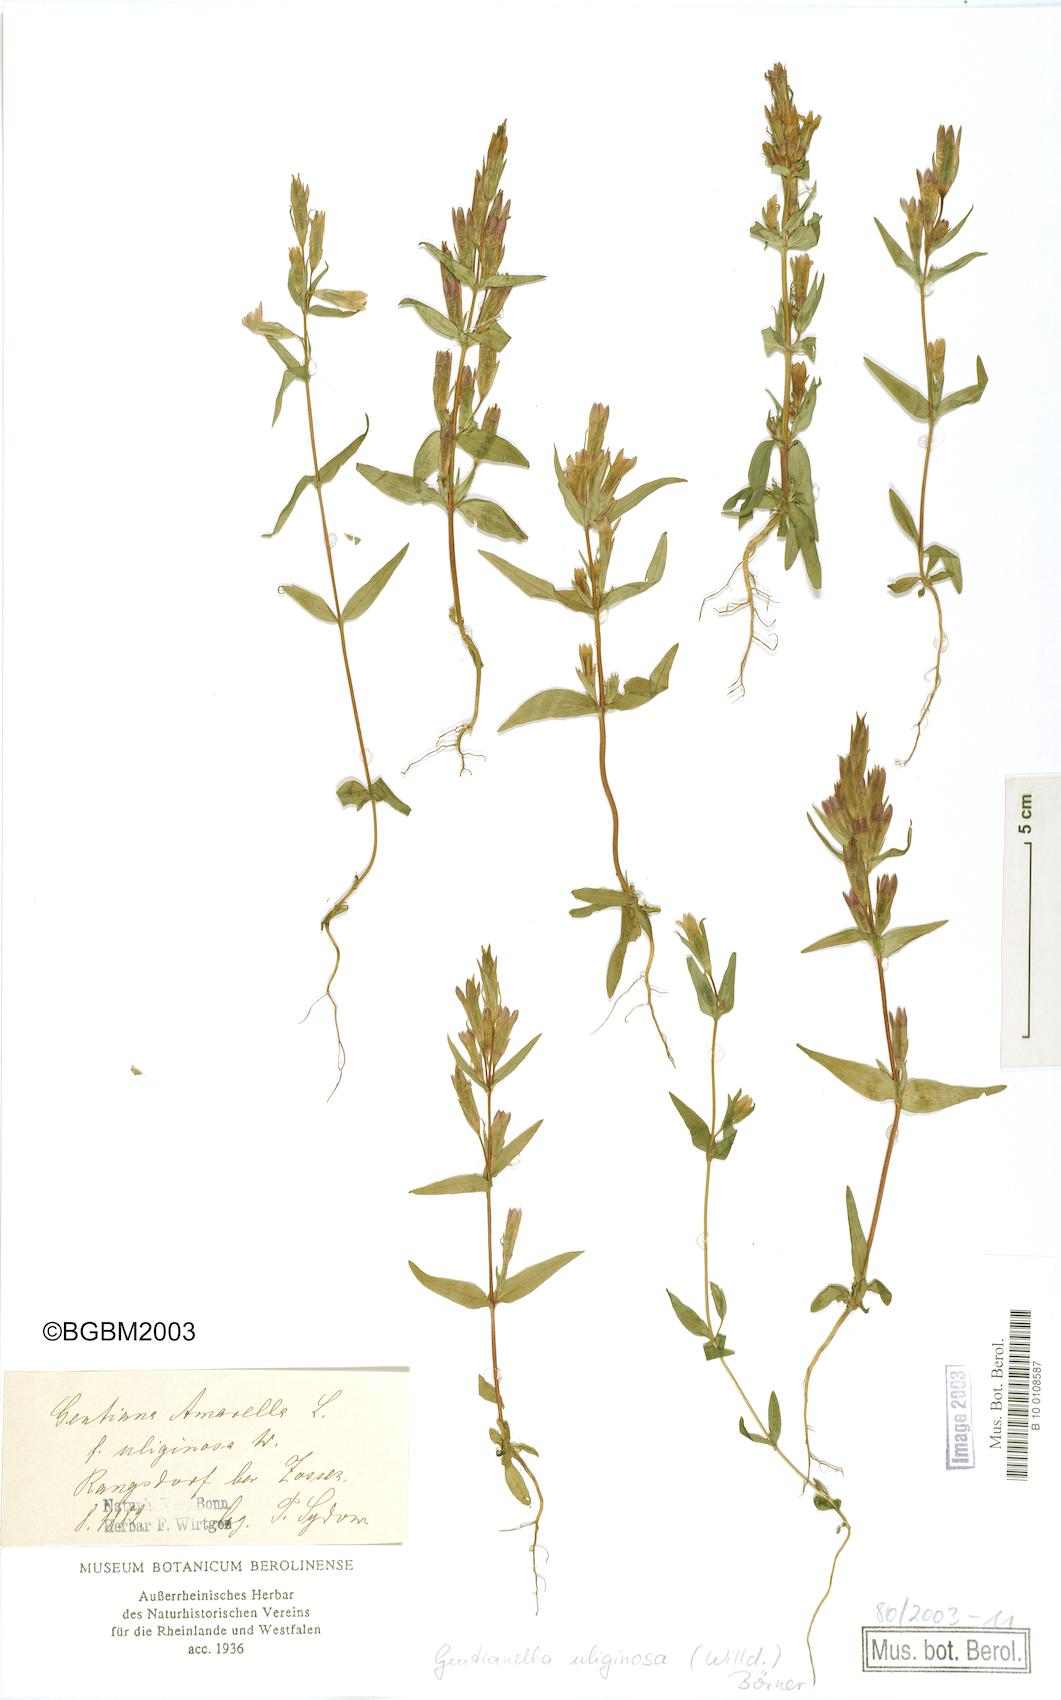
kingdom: Plantae
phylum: Tracheophyta
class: Magnoliopsida
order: Gentianales
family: Gentianaceae
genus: Gentianella
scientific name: Gentianella uliginosa
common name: Dune gentian
